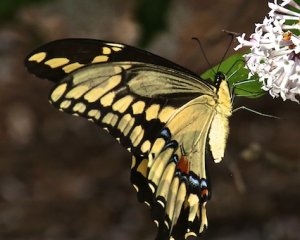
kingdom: Animalia
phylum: Arthropoda
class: Insecta
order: Lepidoptera
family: Papilionidae
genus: Papilio
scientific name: Papilio cresphontes
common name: Eastern Giant Swallowtail
